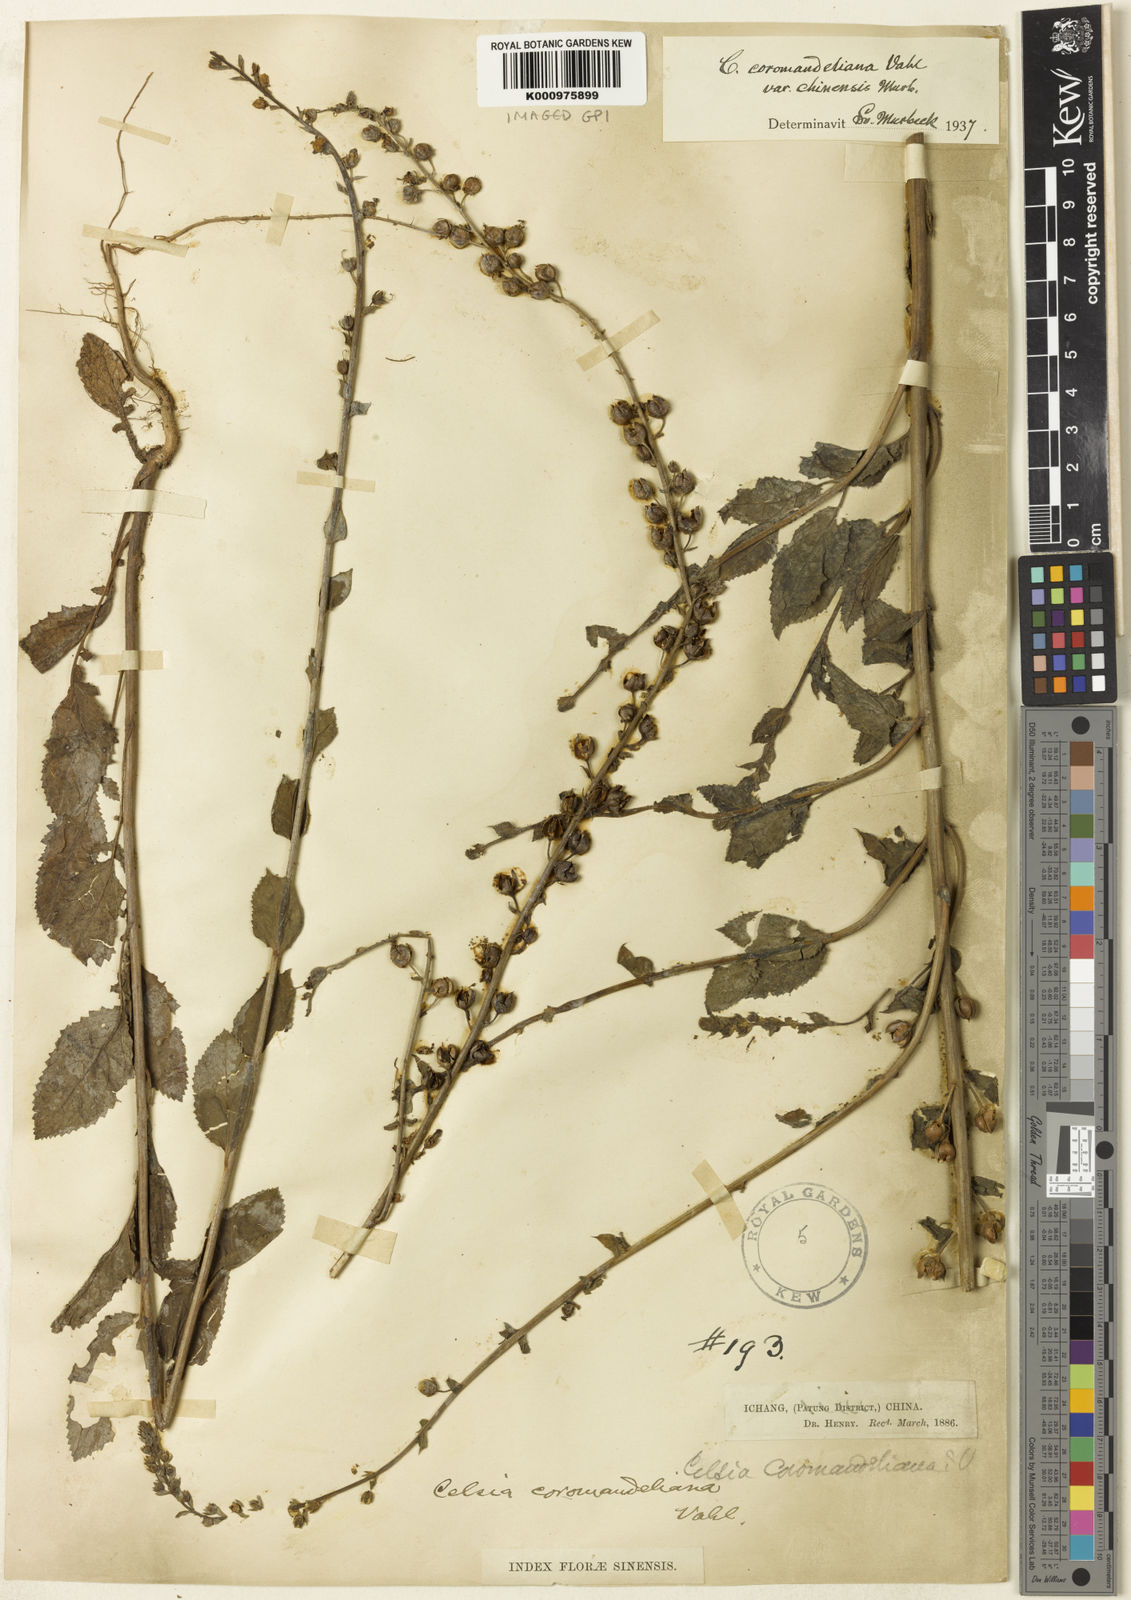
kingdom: Plantae
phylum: Tracheophyta
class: Magnoliopsida
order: Lamiales
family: Scrophulariaceae
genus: Verbascum
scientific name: Verbascum lyprocarpum
